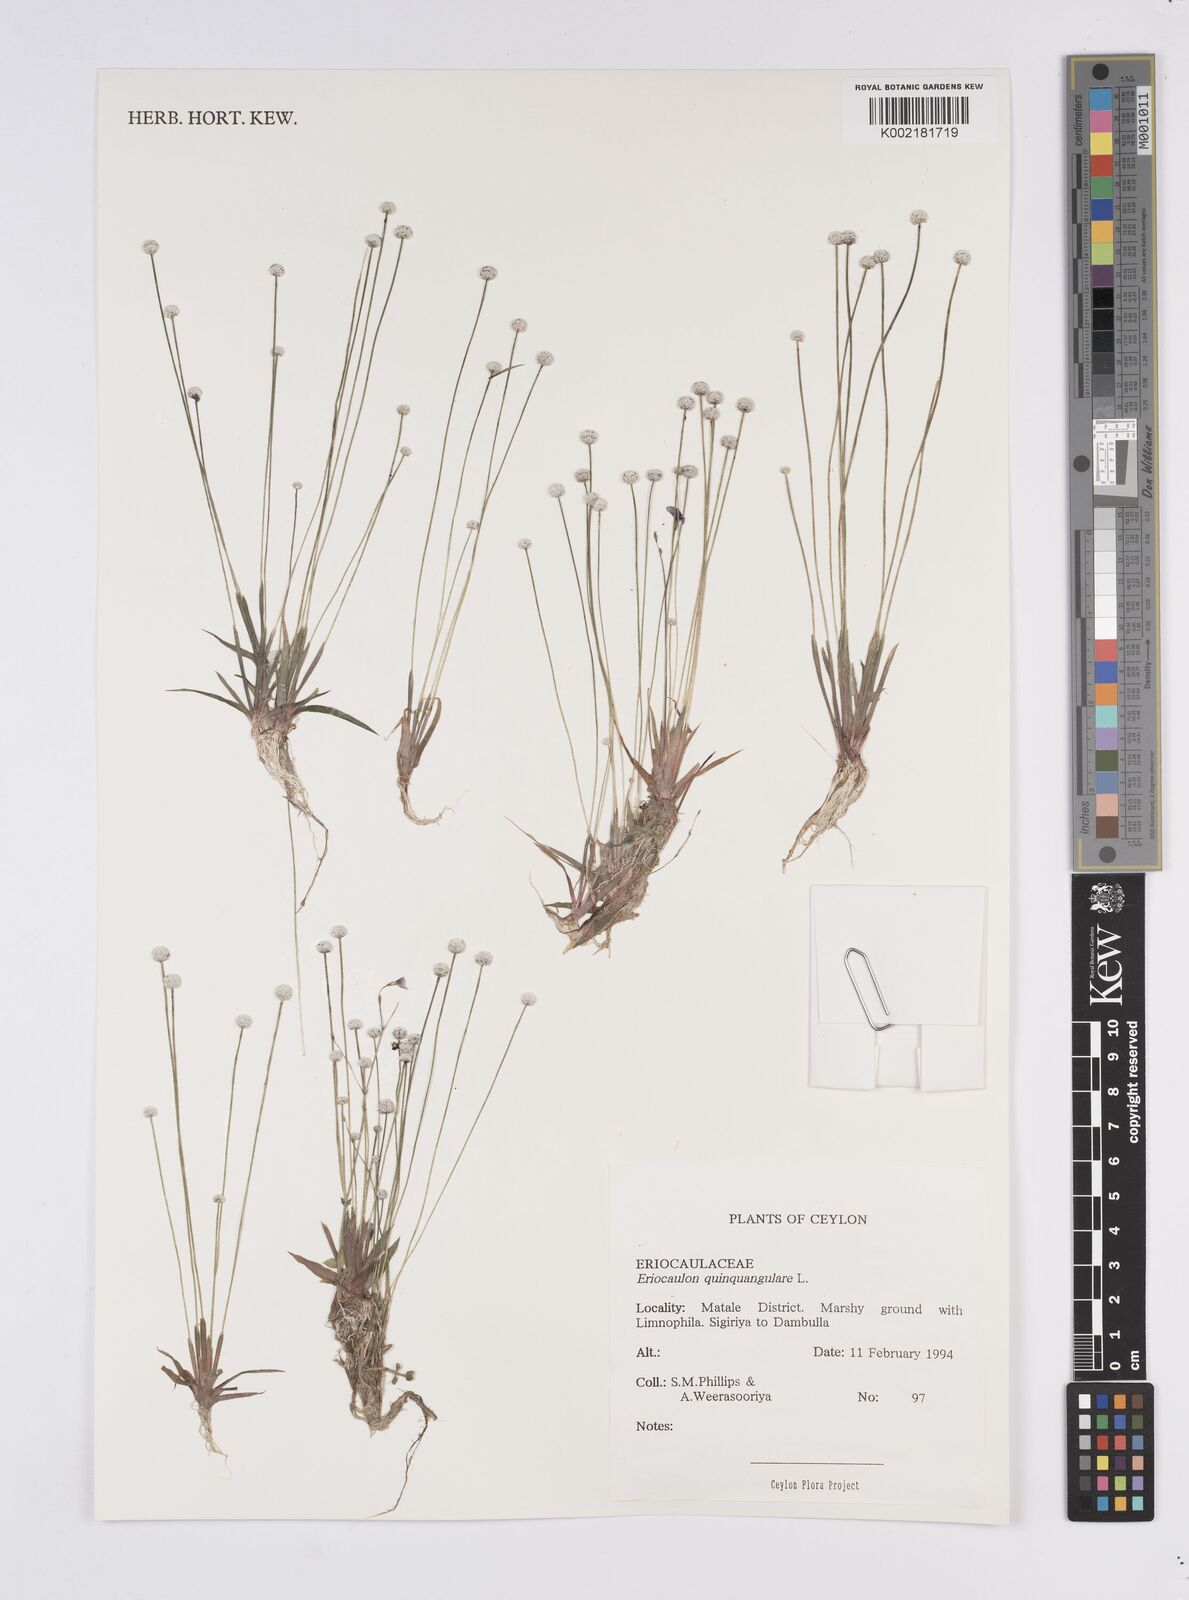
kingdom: Plantae
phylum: Tracheophyta
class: Liliopsida
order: Poales
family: Eriocaulaceae
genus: Eriocaulon
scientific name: Eriocaulon quinquangulare
